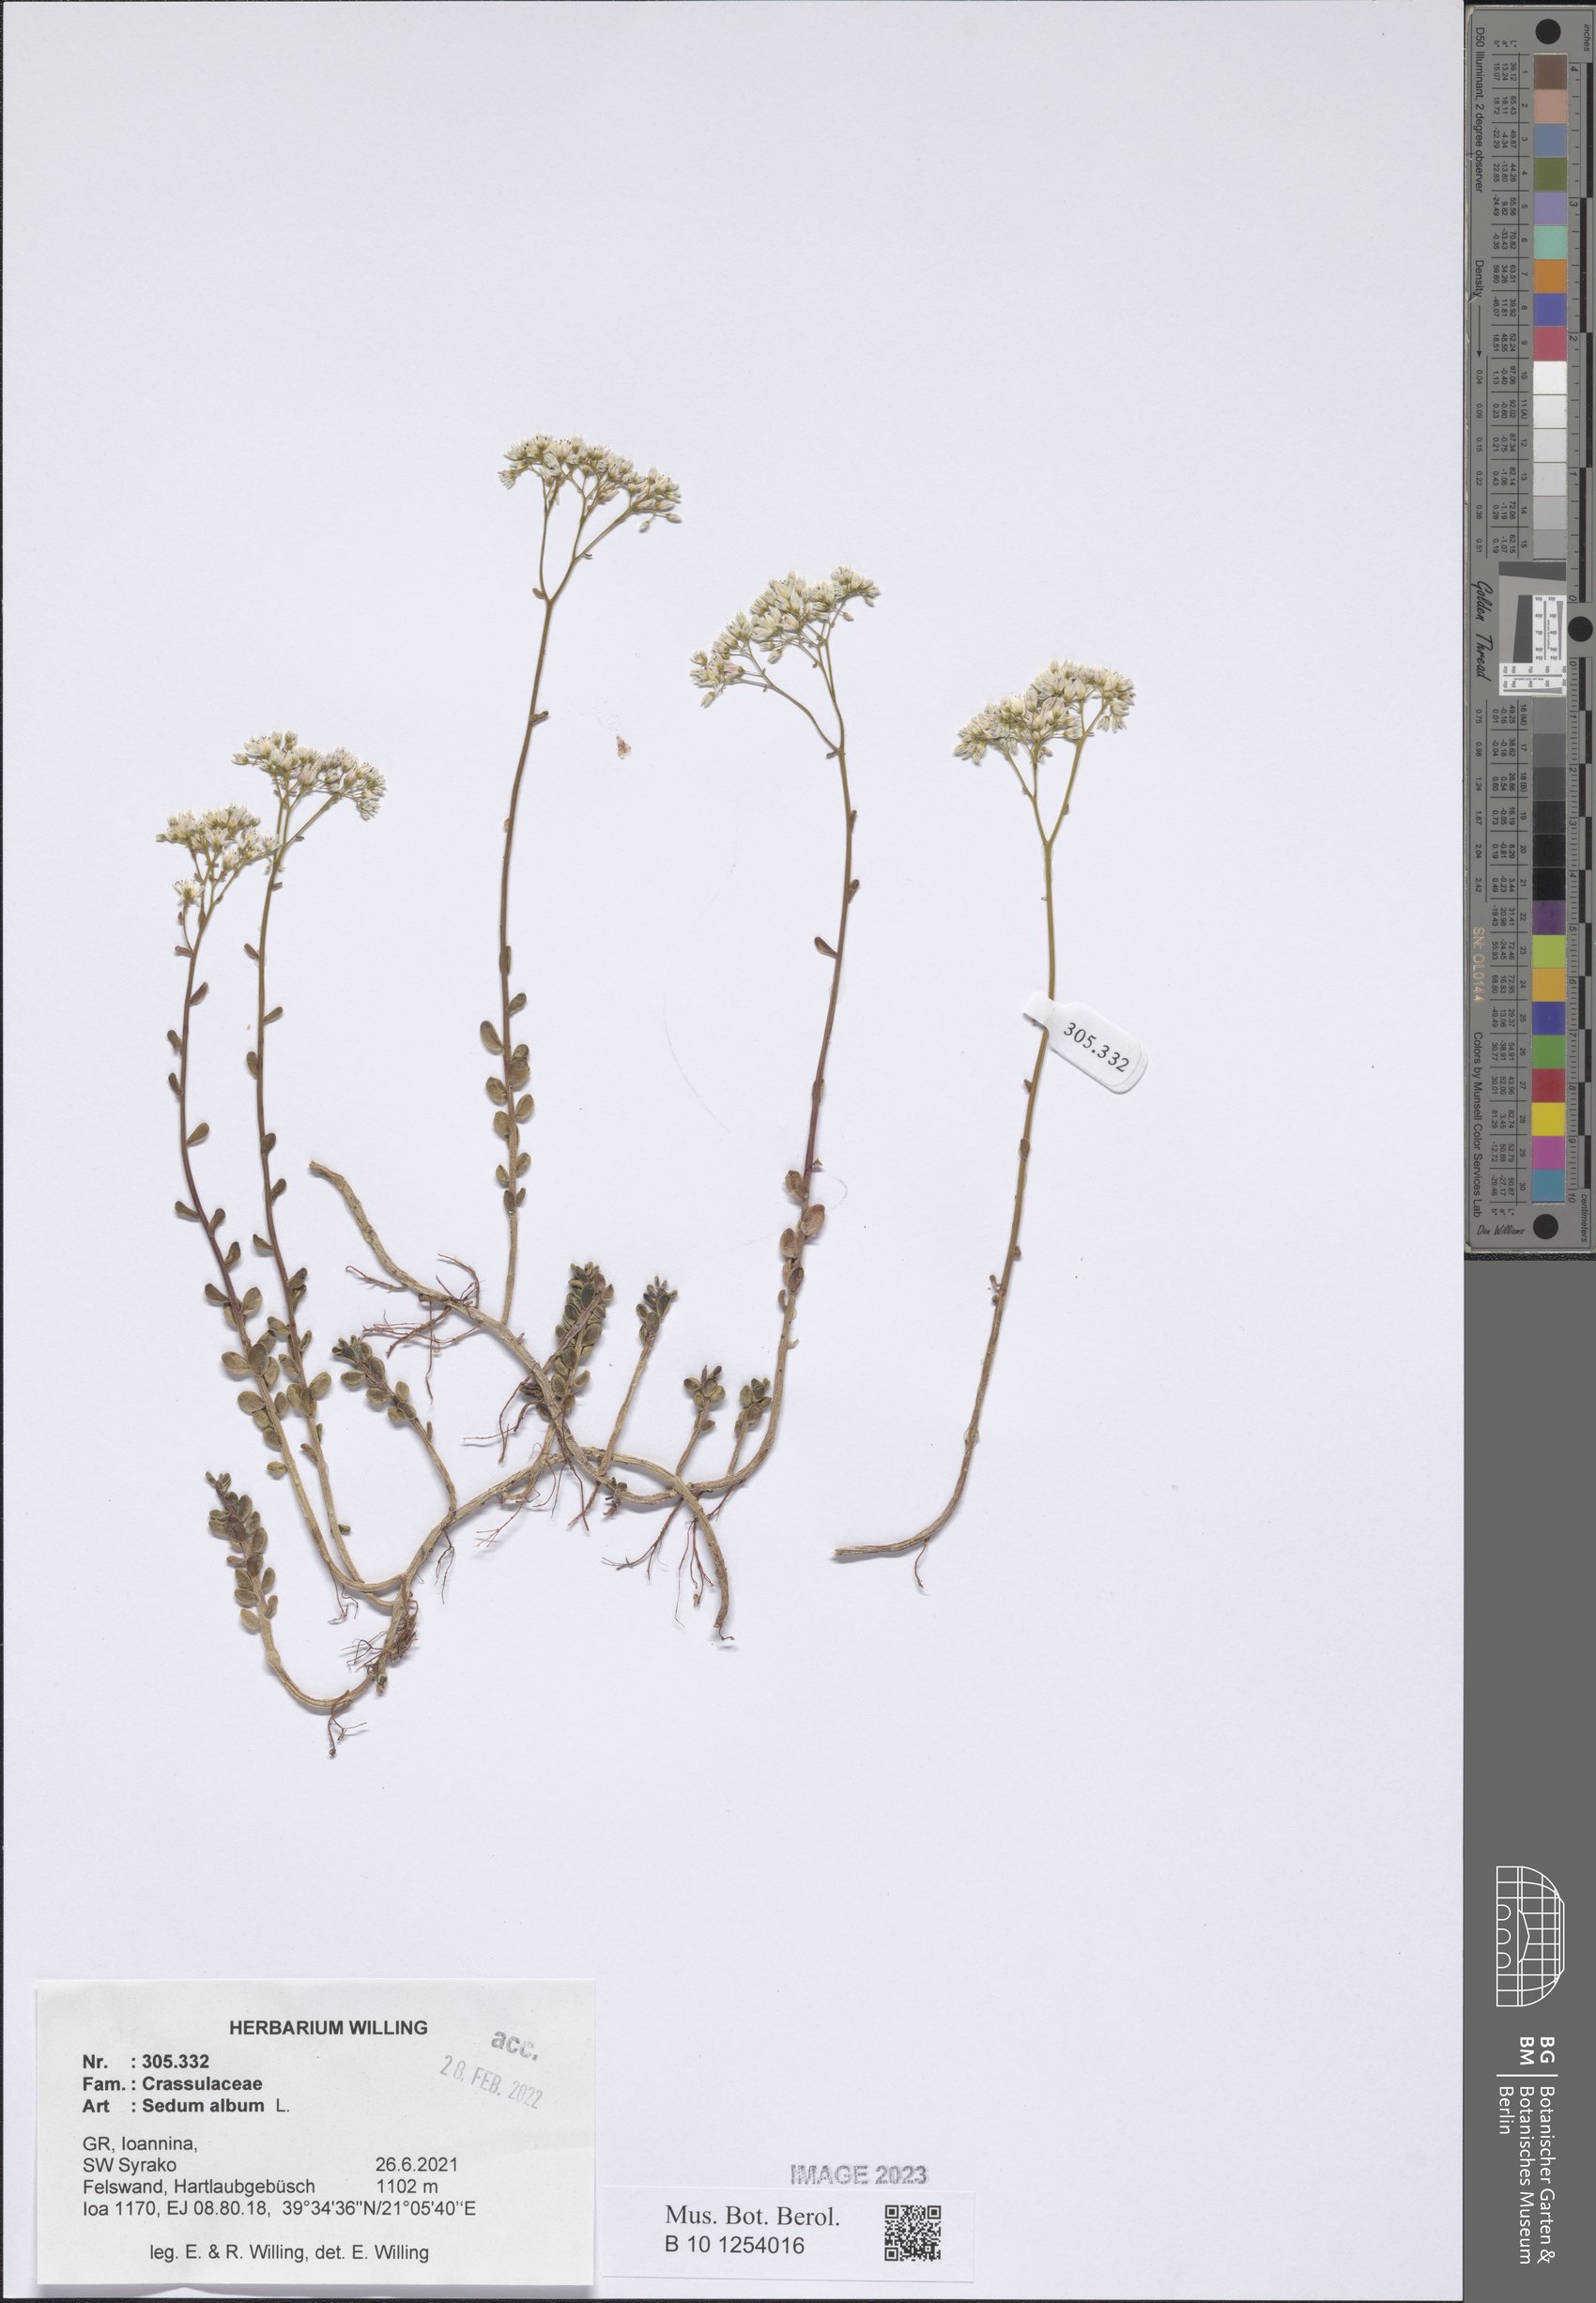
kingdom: Plantae
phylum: Tracheophyta
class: Magnoliopsida
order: Saxifragales
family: Crassulaceae
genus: Sedum
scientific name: Sedum album
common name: White stonecrop
